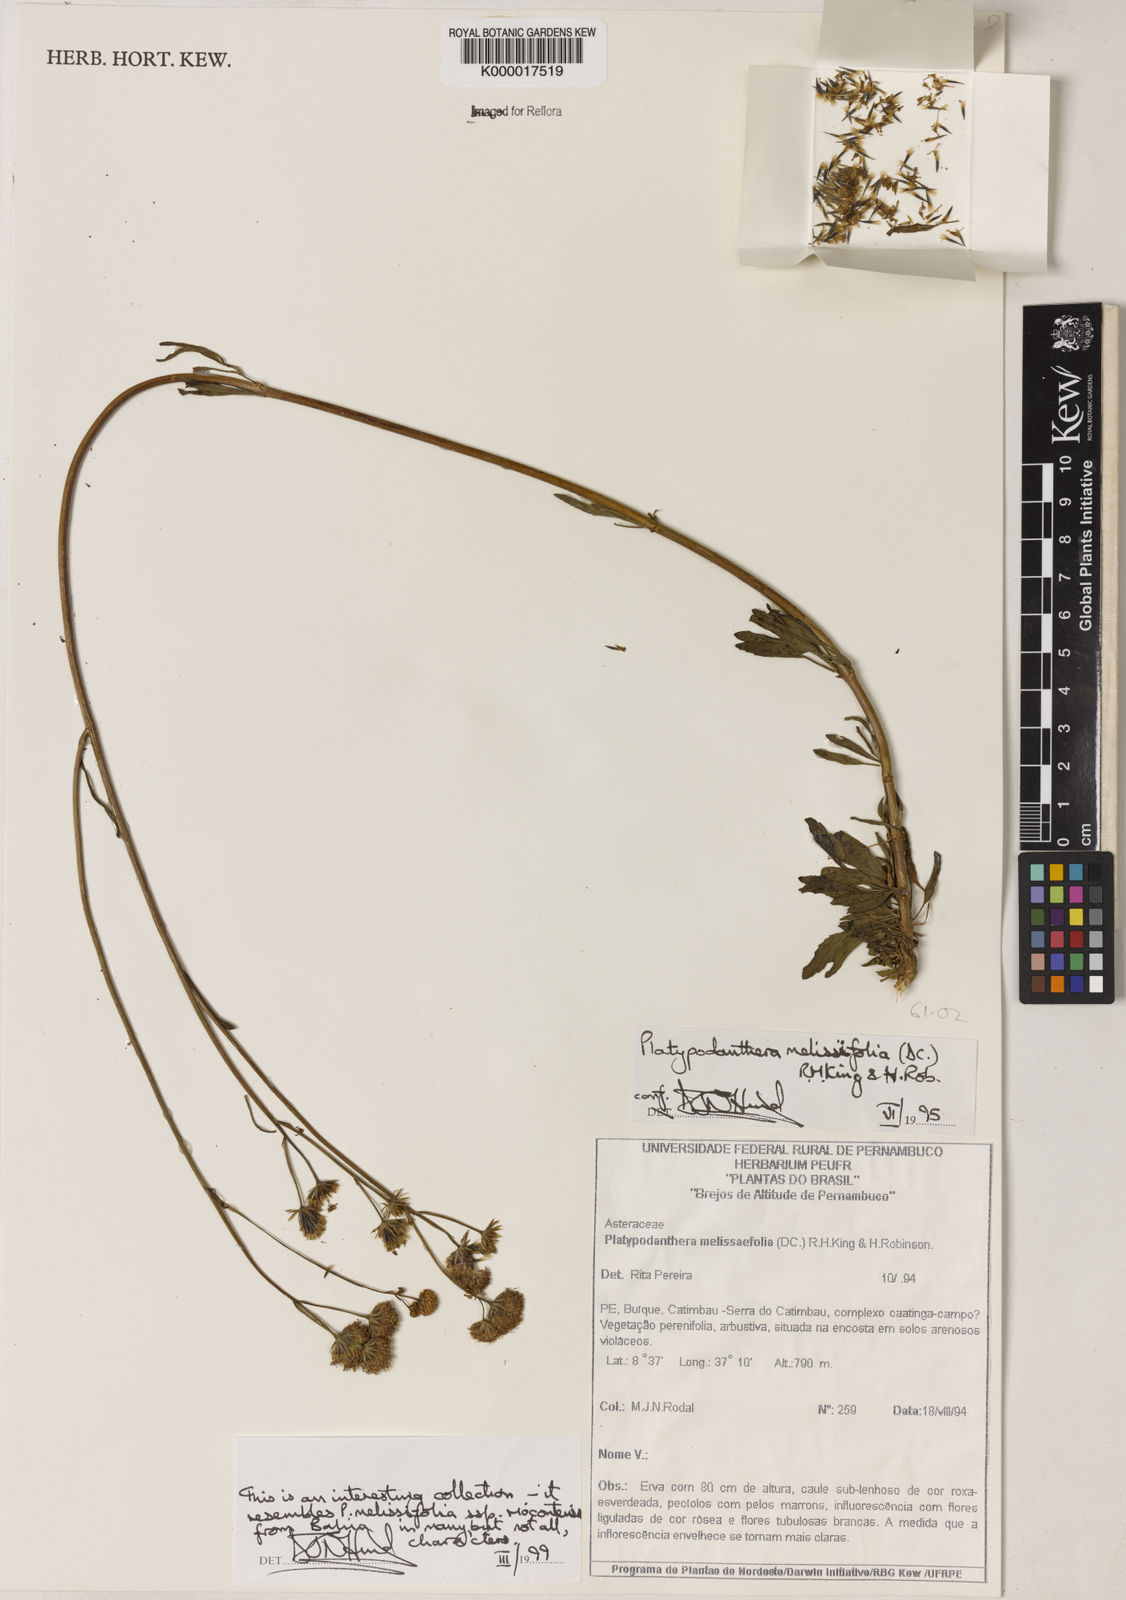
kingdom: Plantae
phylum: Tracheophyta
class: Magnoliopsida
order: Asterales
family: Asteraceae
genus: Platypodanthera
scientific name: Platypodanthera melissifolia
